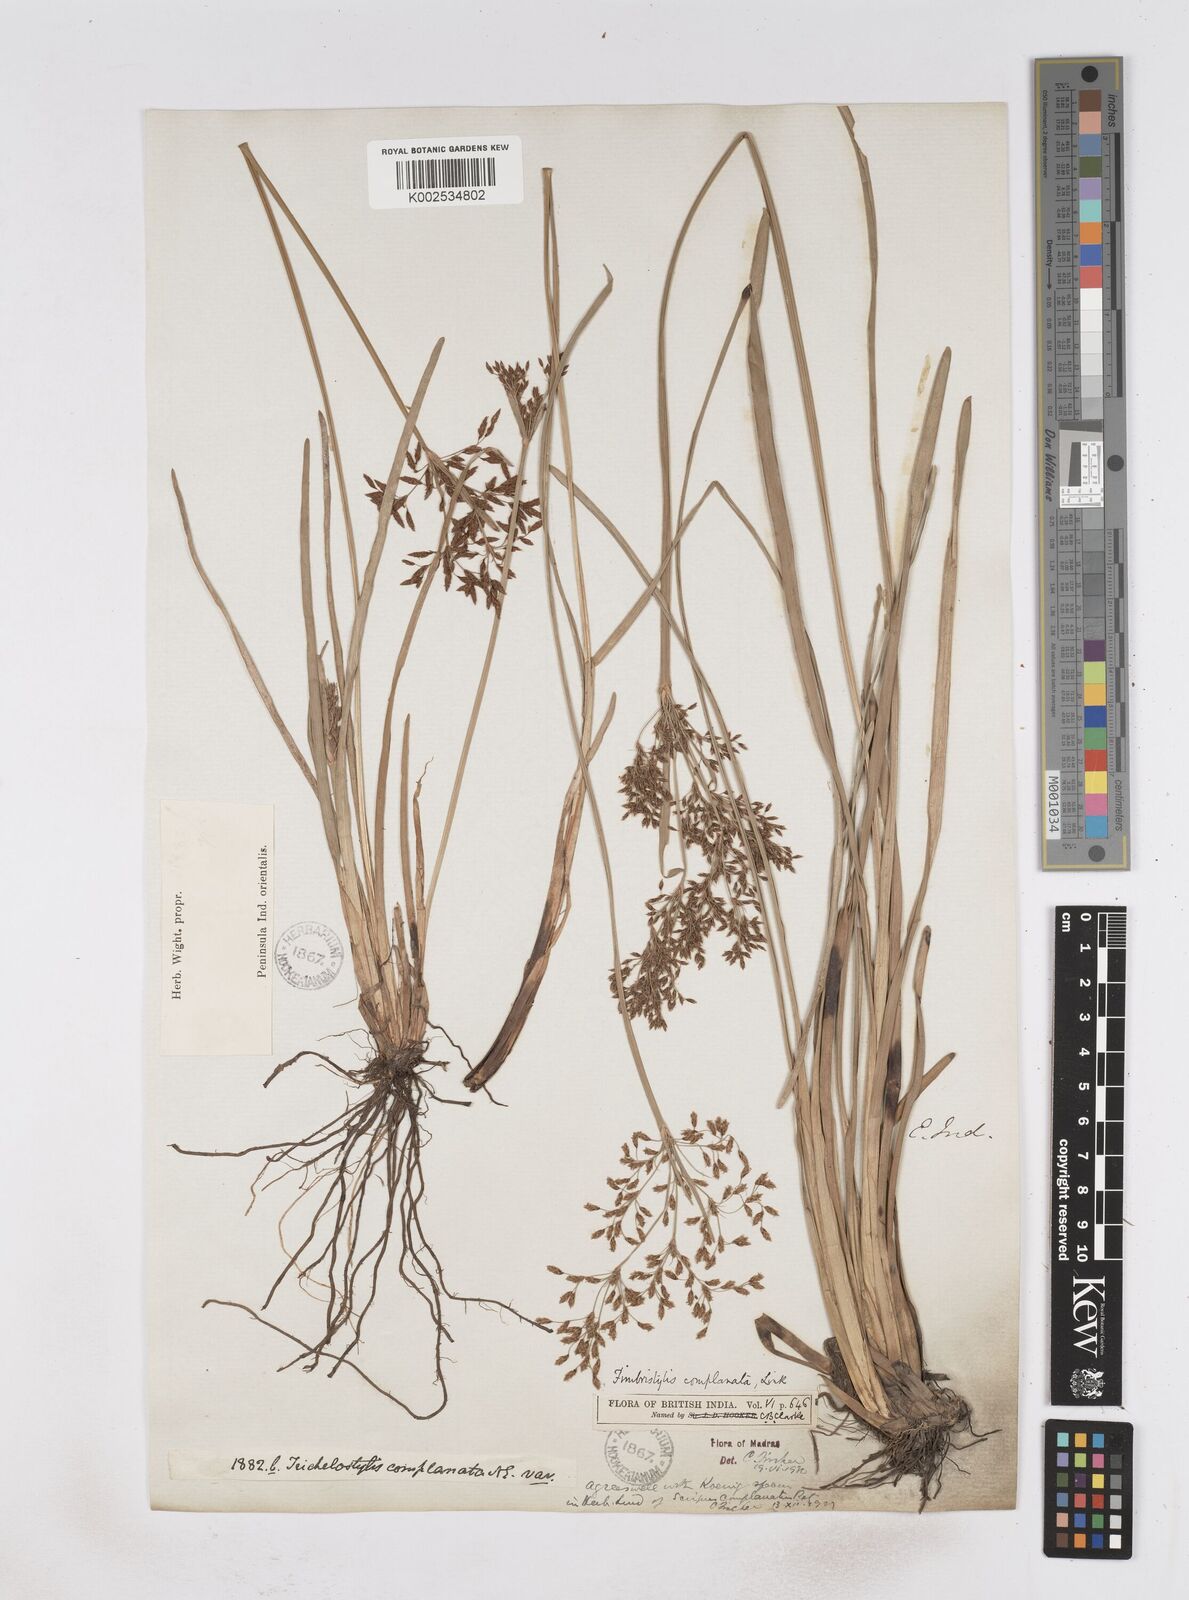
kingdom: Plantae
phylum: Tracheophyta
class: Liliopsida
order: Poales
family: Cyperaceae
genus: Fimbristylis
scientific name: Fimbristylis complanata
